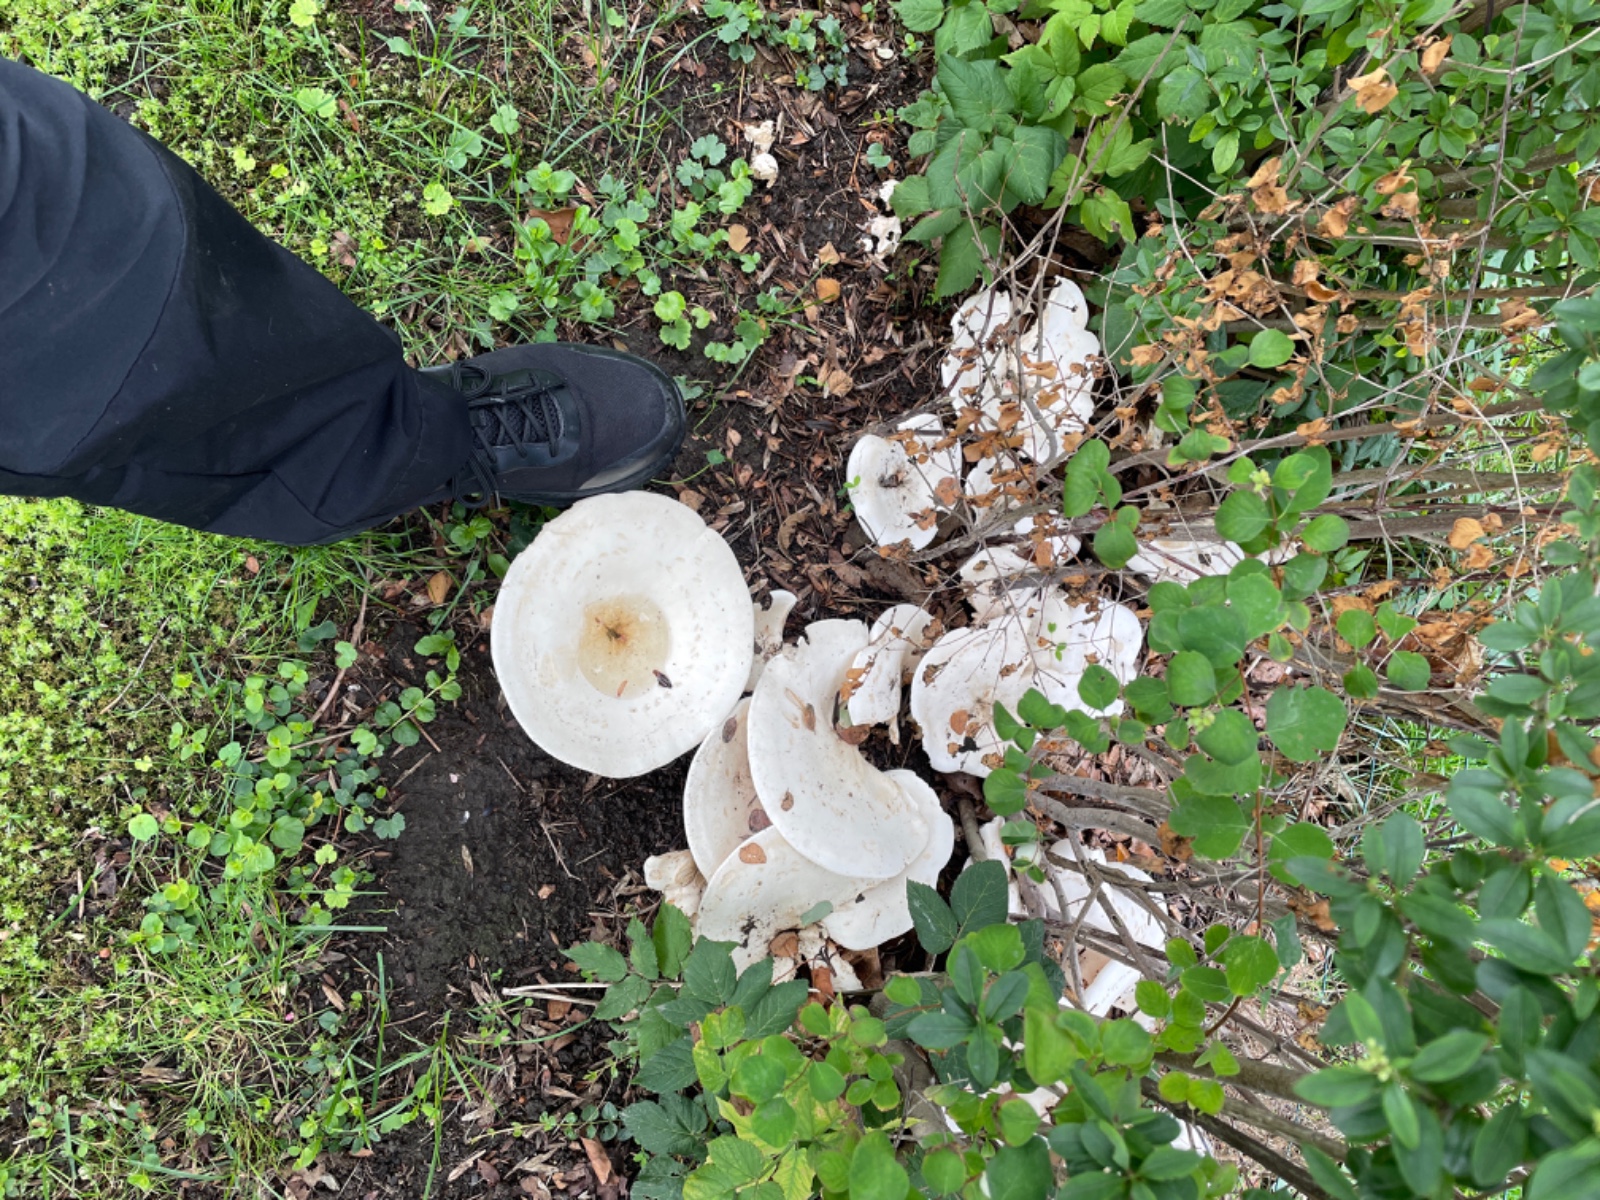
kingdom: Fungi
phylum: Basidiomycota
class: Agaricomycetes
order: Agaricales
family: Tricholomataceae
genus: Aspropaxillus
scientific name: Aspropaxillus giganteus
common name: kæmpe-tragtridderhat
